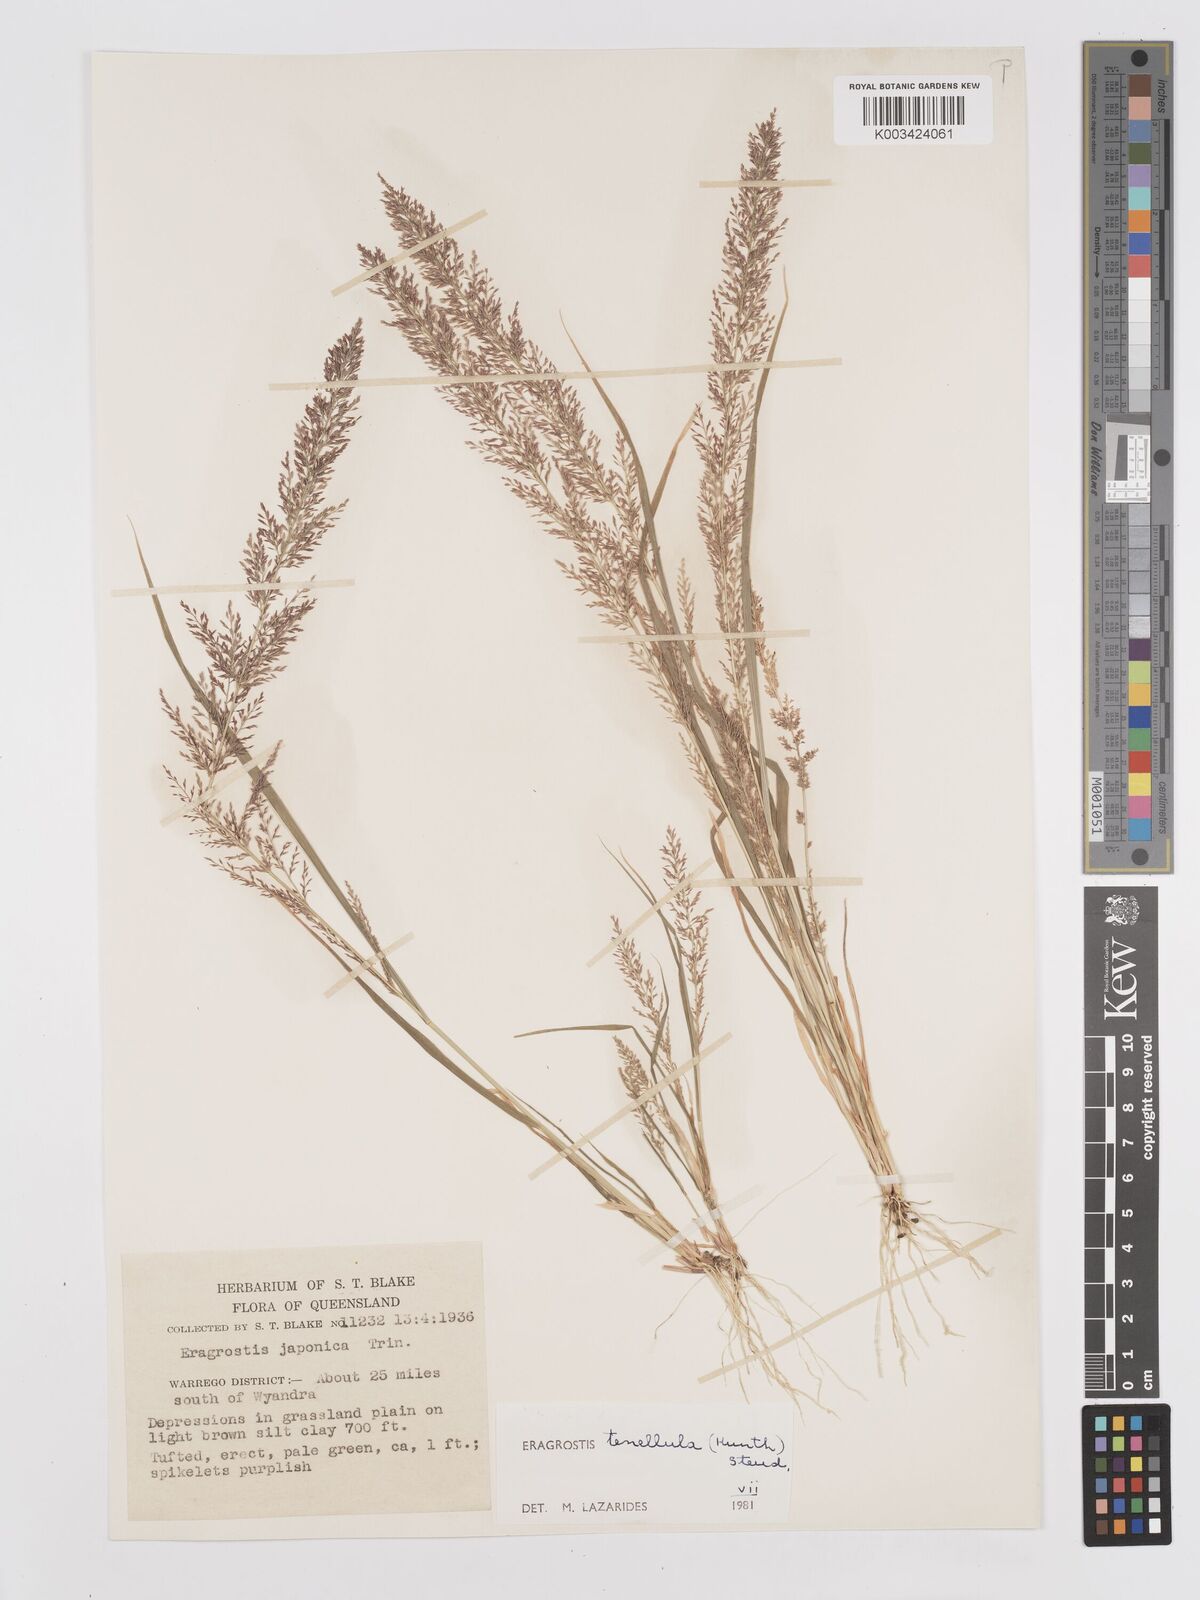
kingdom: Plantae
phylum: Tracheophyta
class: Liliopsida
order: Poales
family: Poaceae
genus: Eragrostis
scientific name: Eragrostis tenellula
